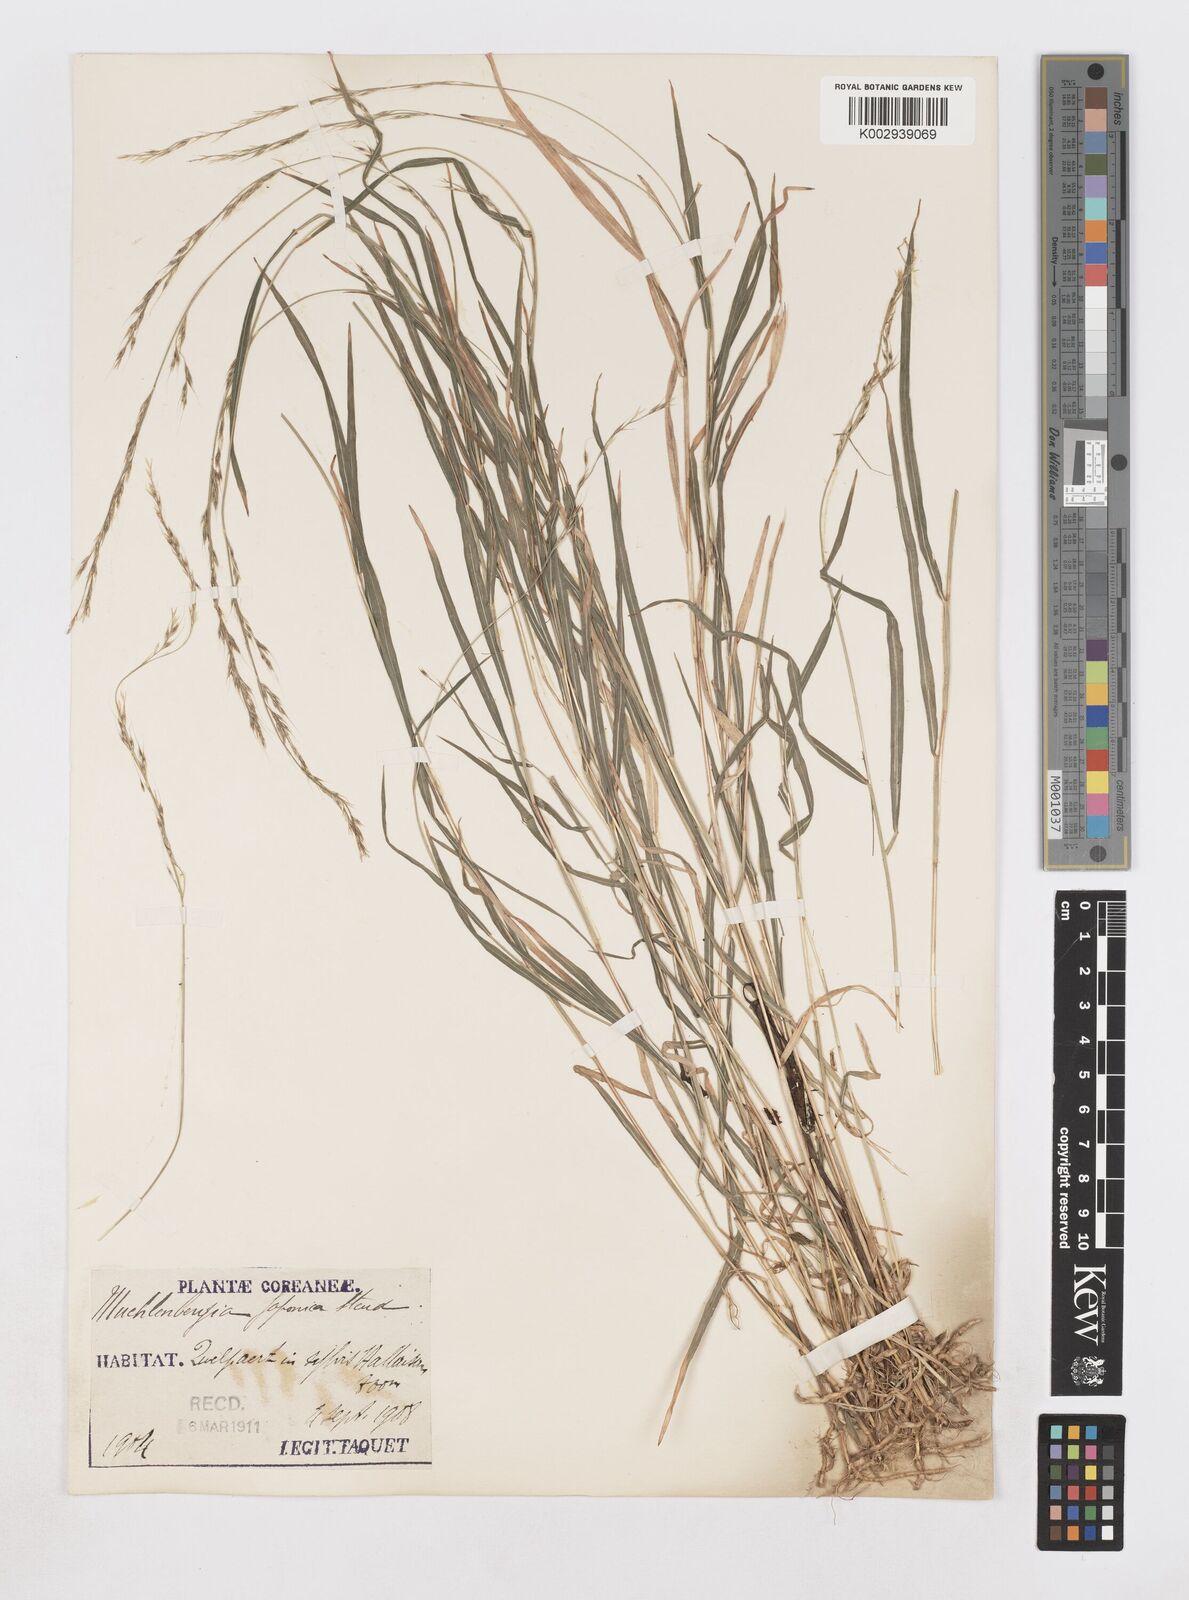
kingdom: Plantae
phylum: Tracheophyta
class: Liliopsida
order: Poales
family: Poaceae
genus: Muhlenbergia
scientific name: Muhlenbergia hakonensis
